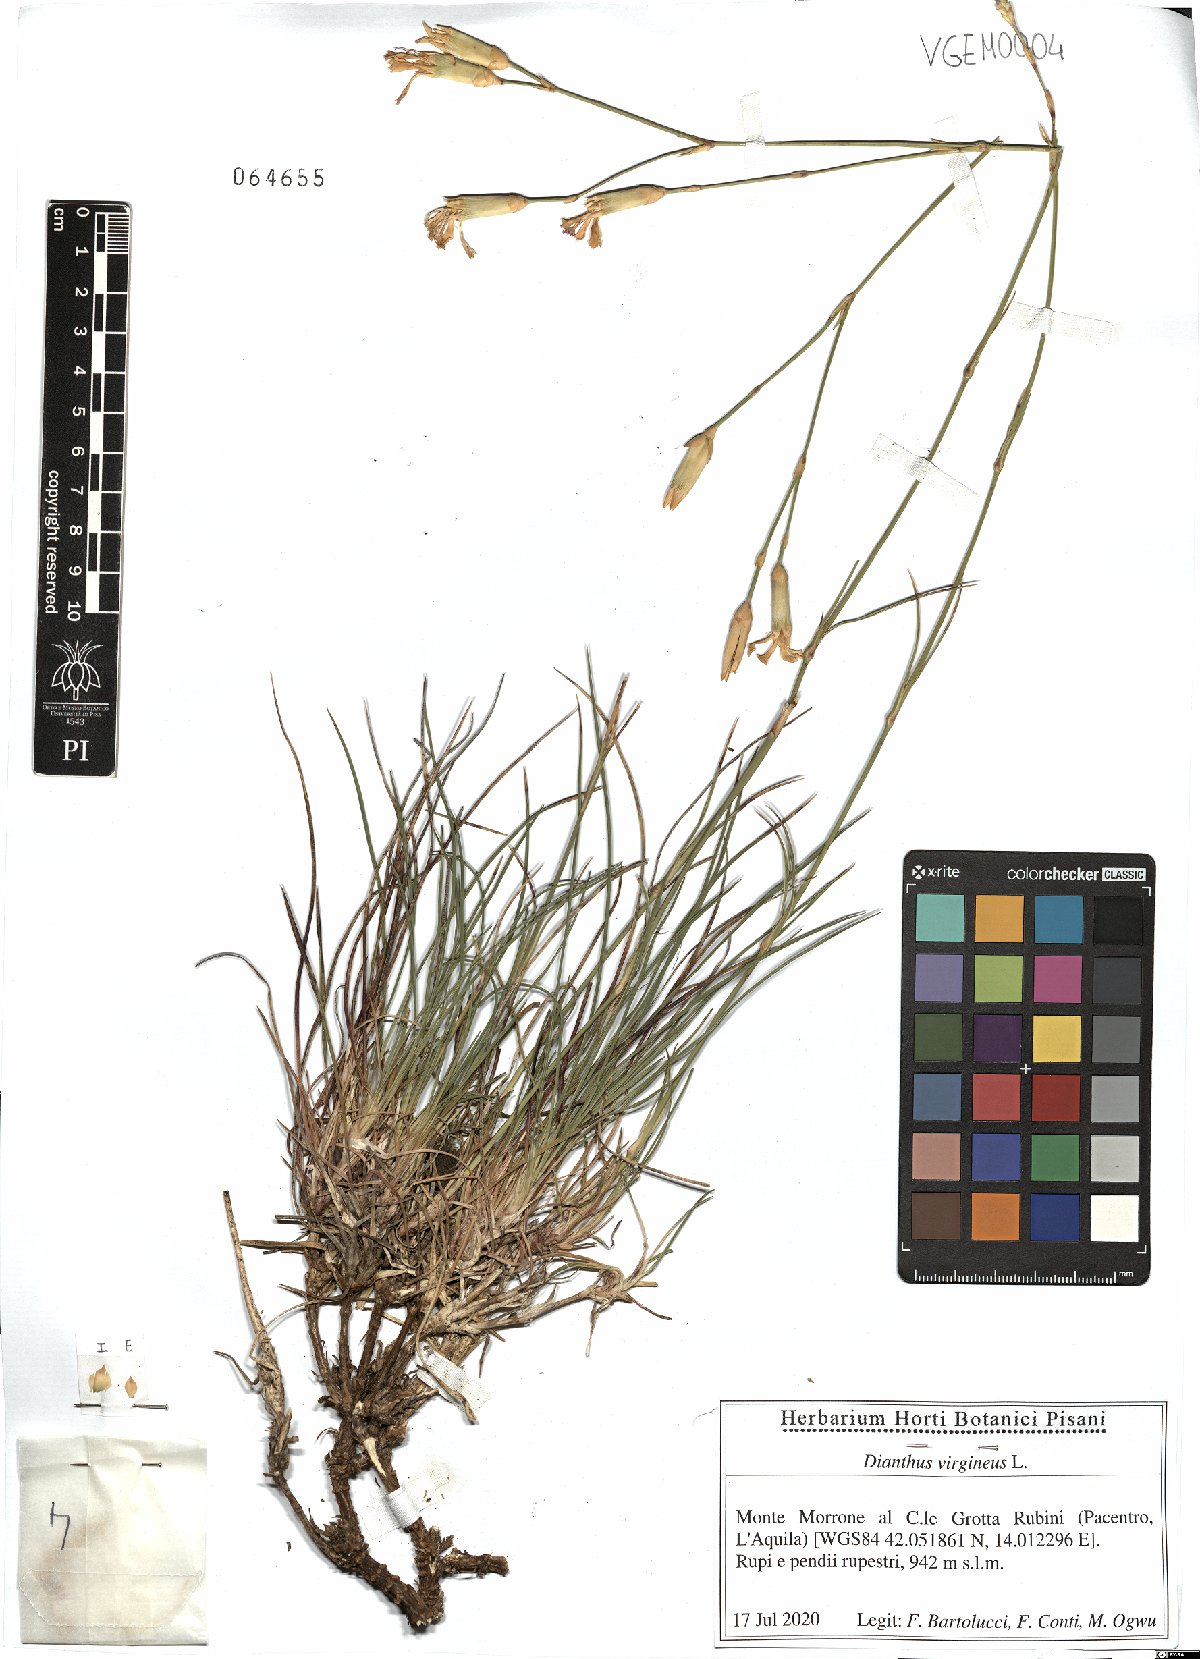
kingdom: Plantae
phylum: Tracheophyta
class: Magnoliopsida
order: Caryophyllales
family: Caryophyllaceae
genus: Dianthus
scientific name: Dianthus virgineus
